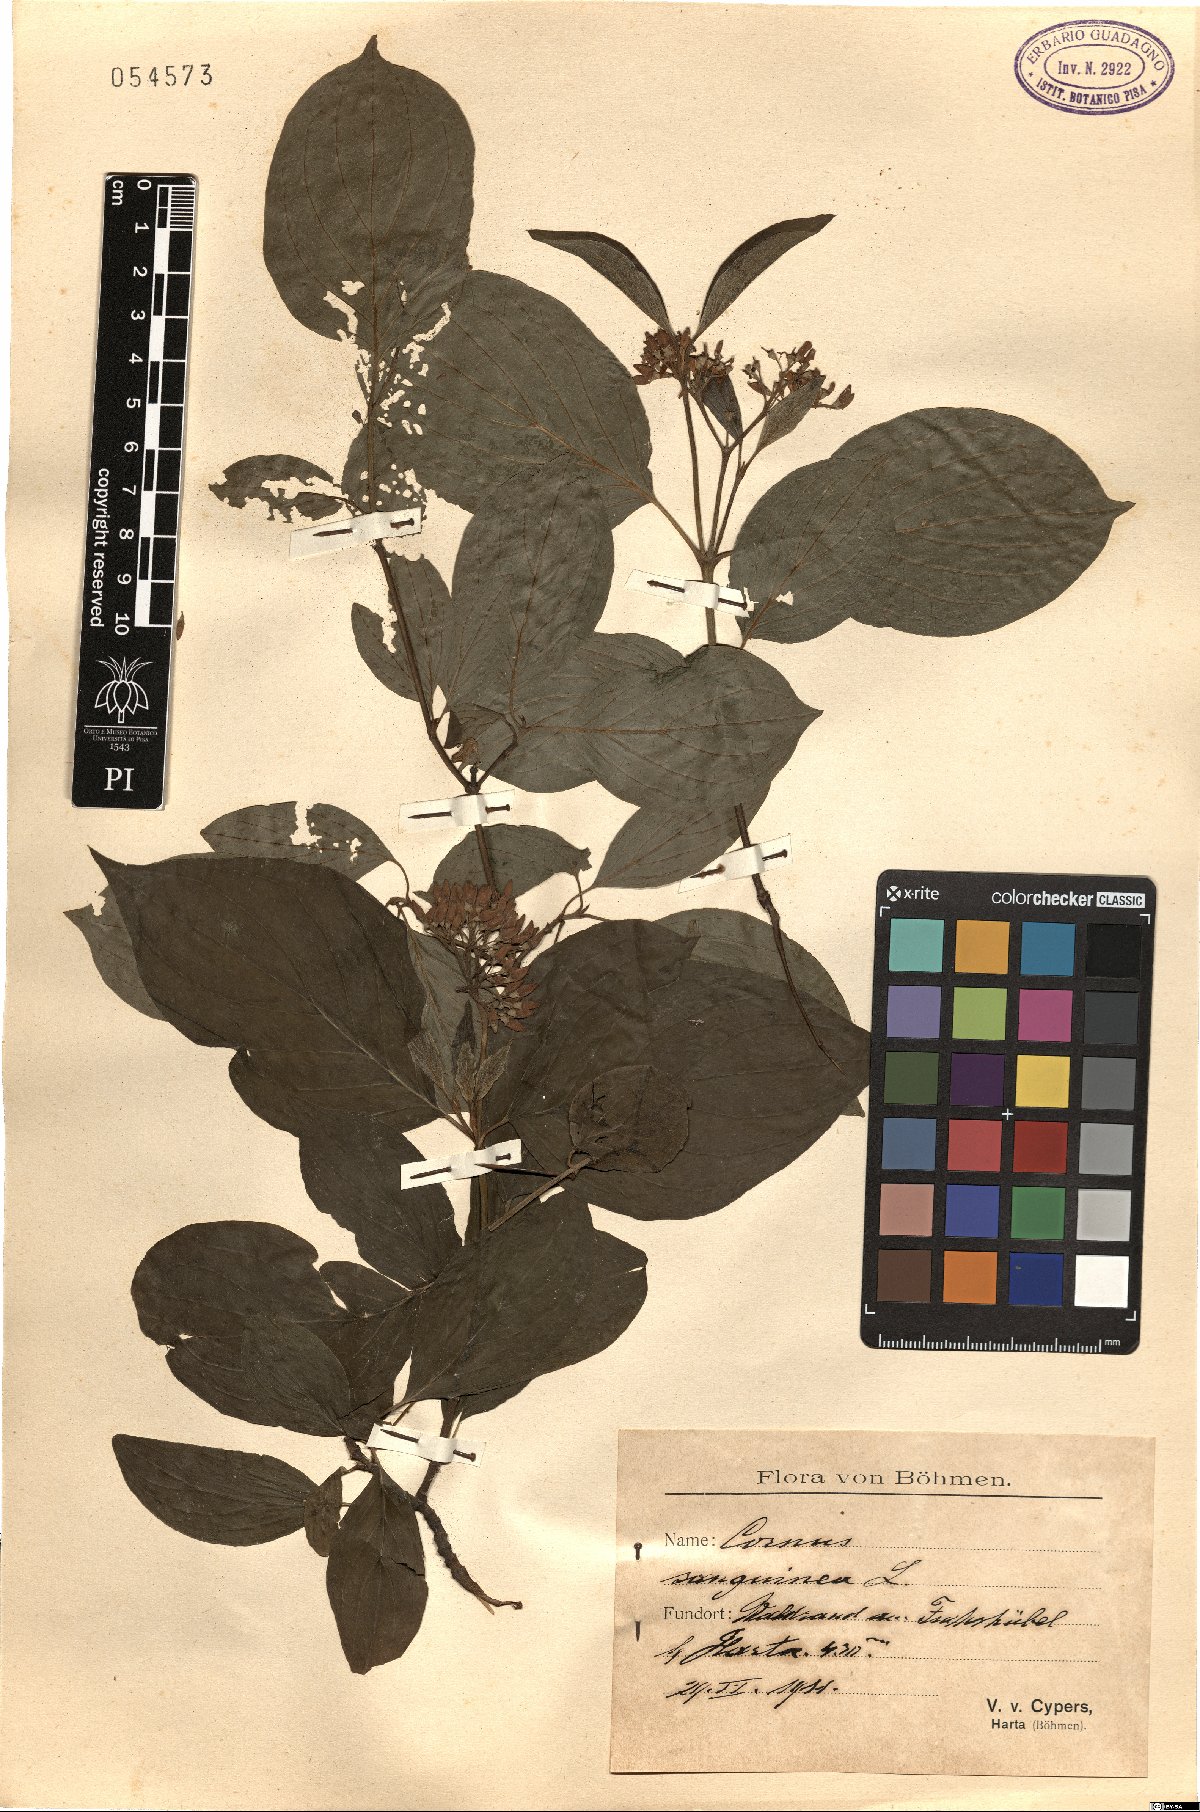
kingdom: Plantae
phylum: Tracheophyta
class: Magnoliopsida
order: Cornales
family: Cornaceae
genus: Cornus
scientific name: Cornus sanguinea
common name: Dogwood
